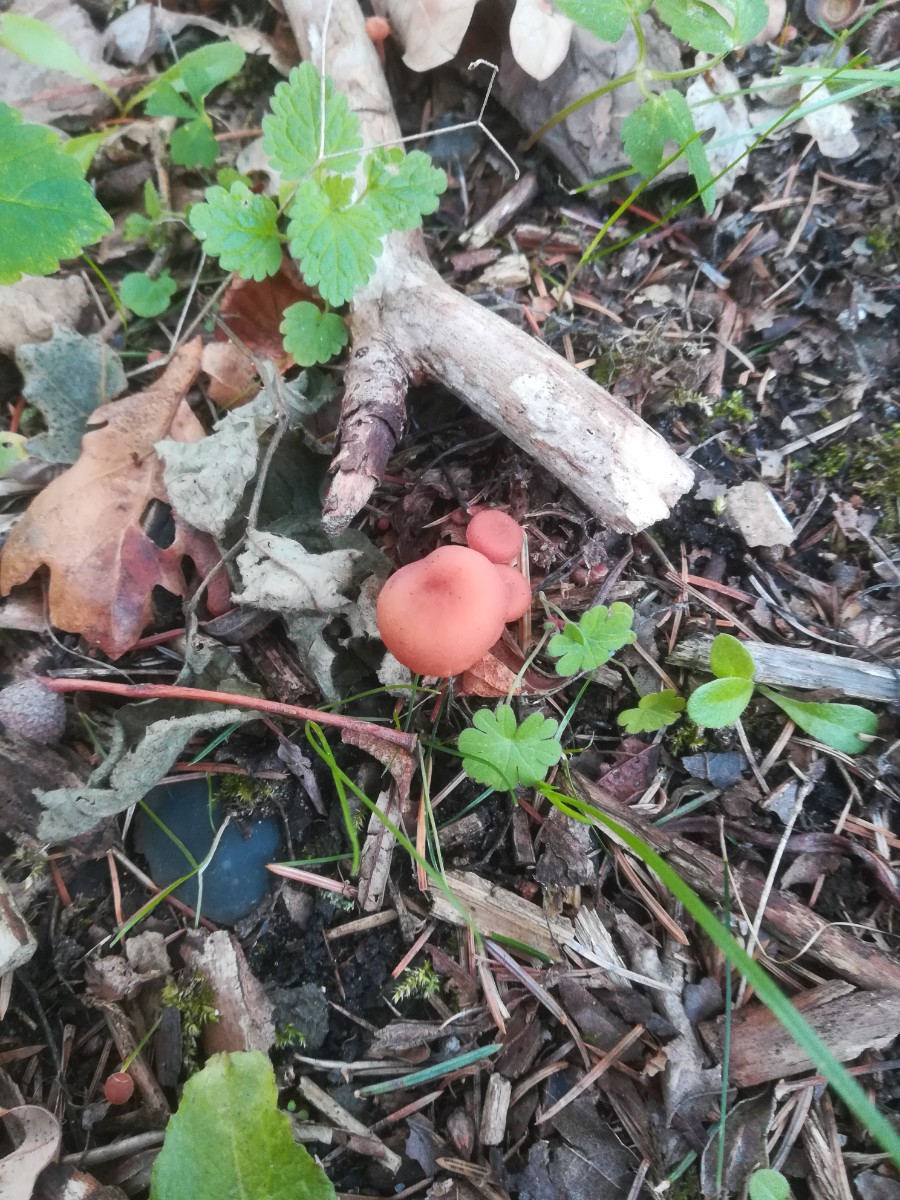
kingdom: Fungi
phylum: Basidiomycota
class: Agaricomycetes
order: Agaricales
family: Hydnangiaceae
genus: Laccaria
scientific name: Laccaria laccata
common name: rød ametysthat
